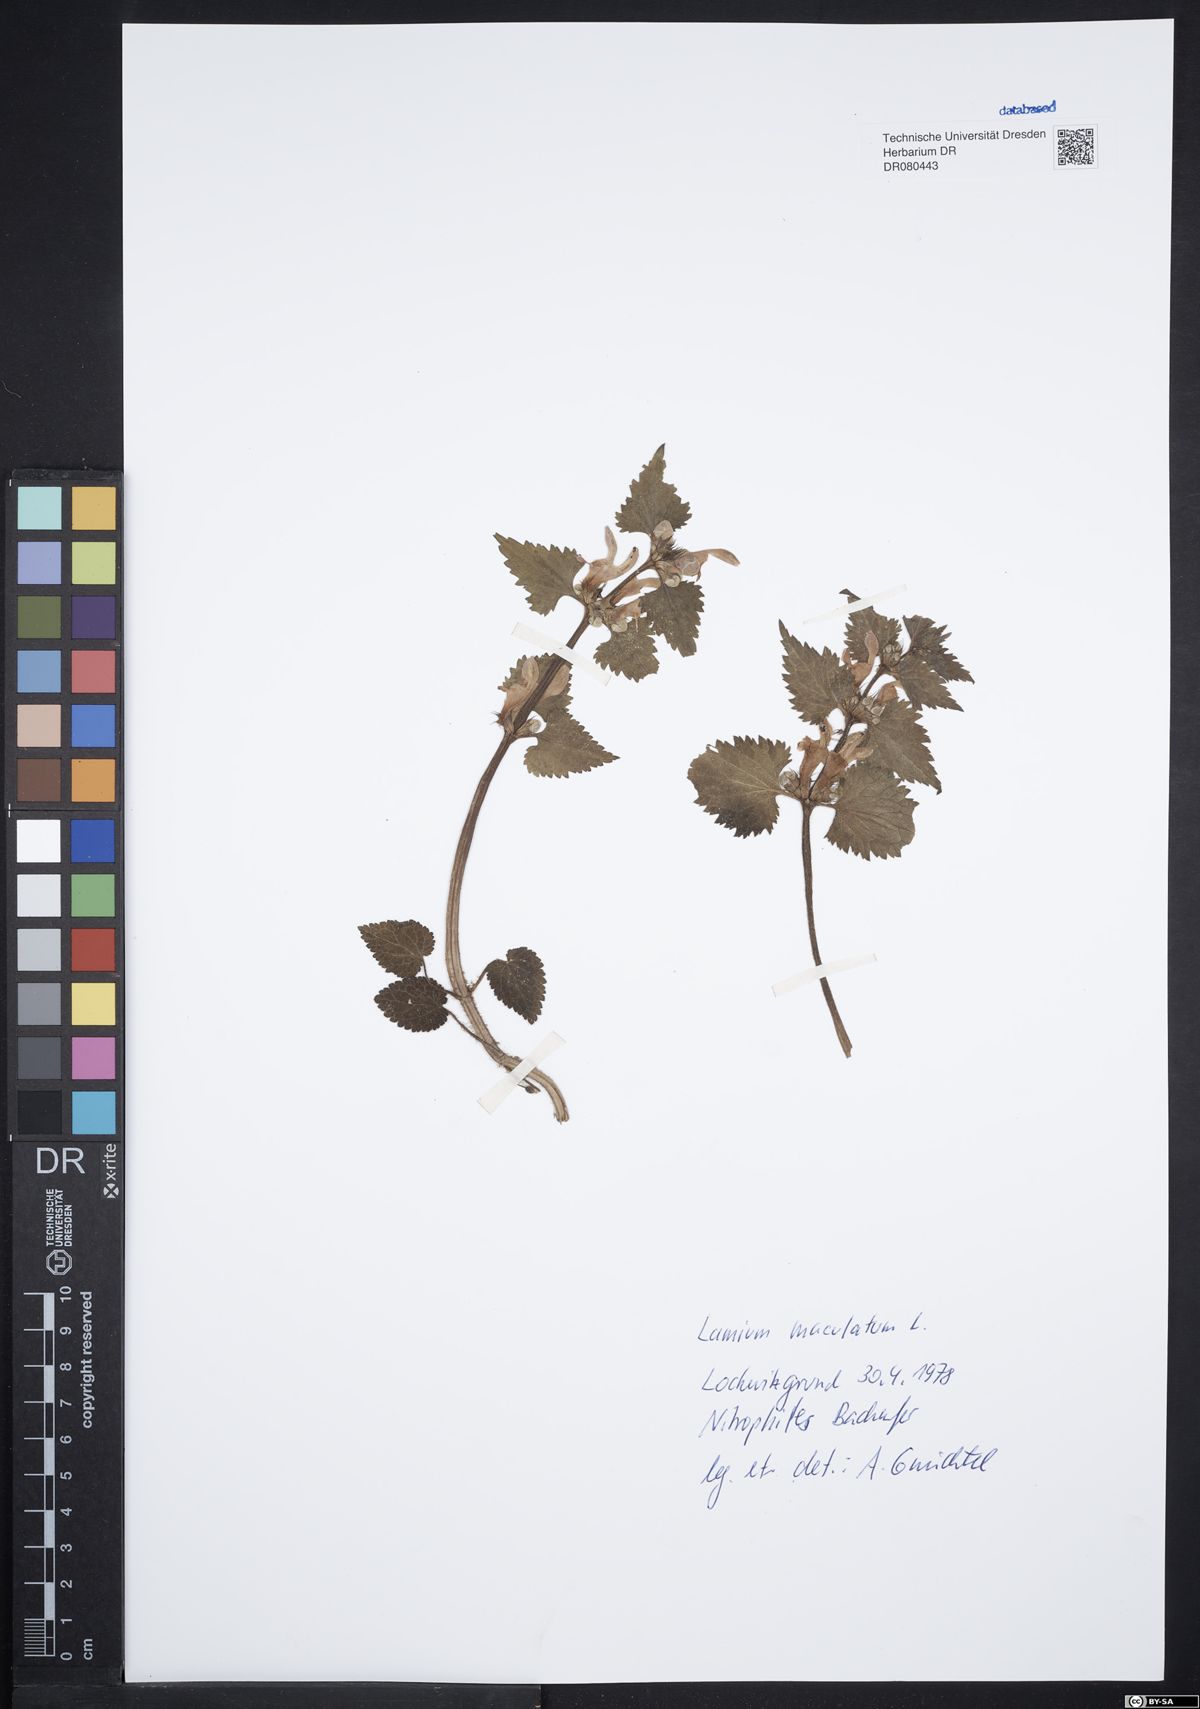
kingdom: Plantae
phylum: Tracheophyta
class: Magnoliopsida
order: Lamiales
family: Lamiaceae
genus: Lamium
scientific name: Lamium maculatum
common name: Spotted dead-nettle
